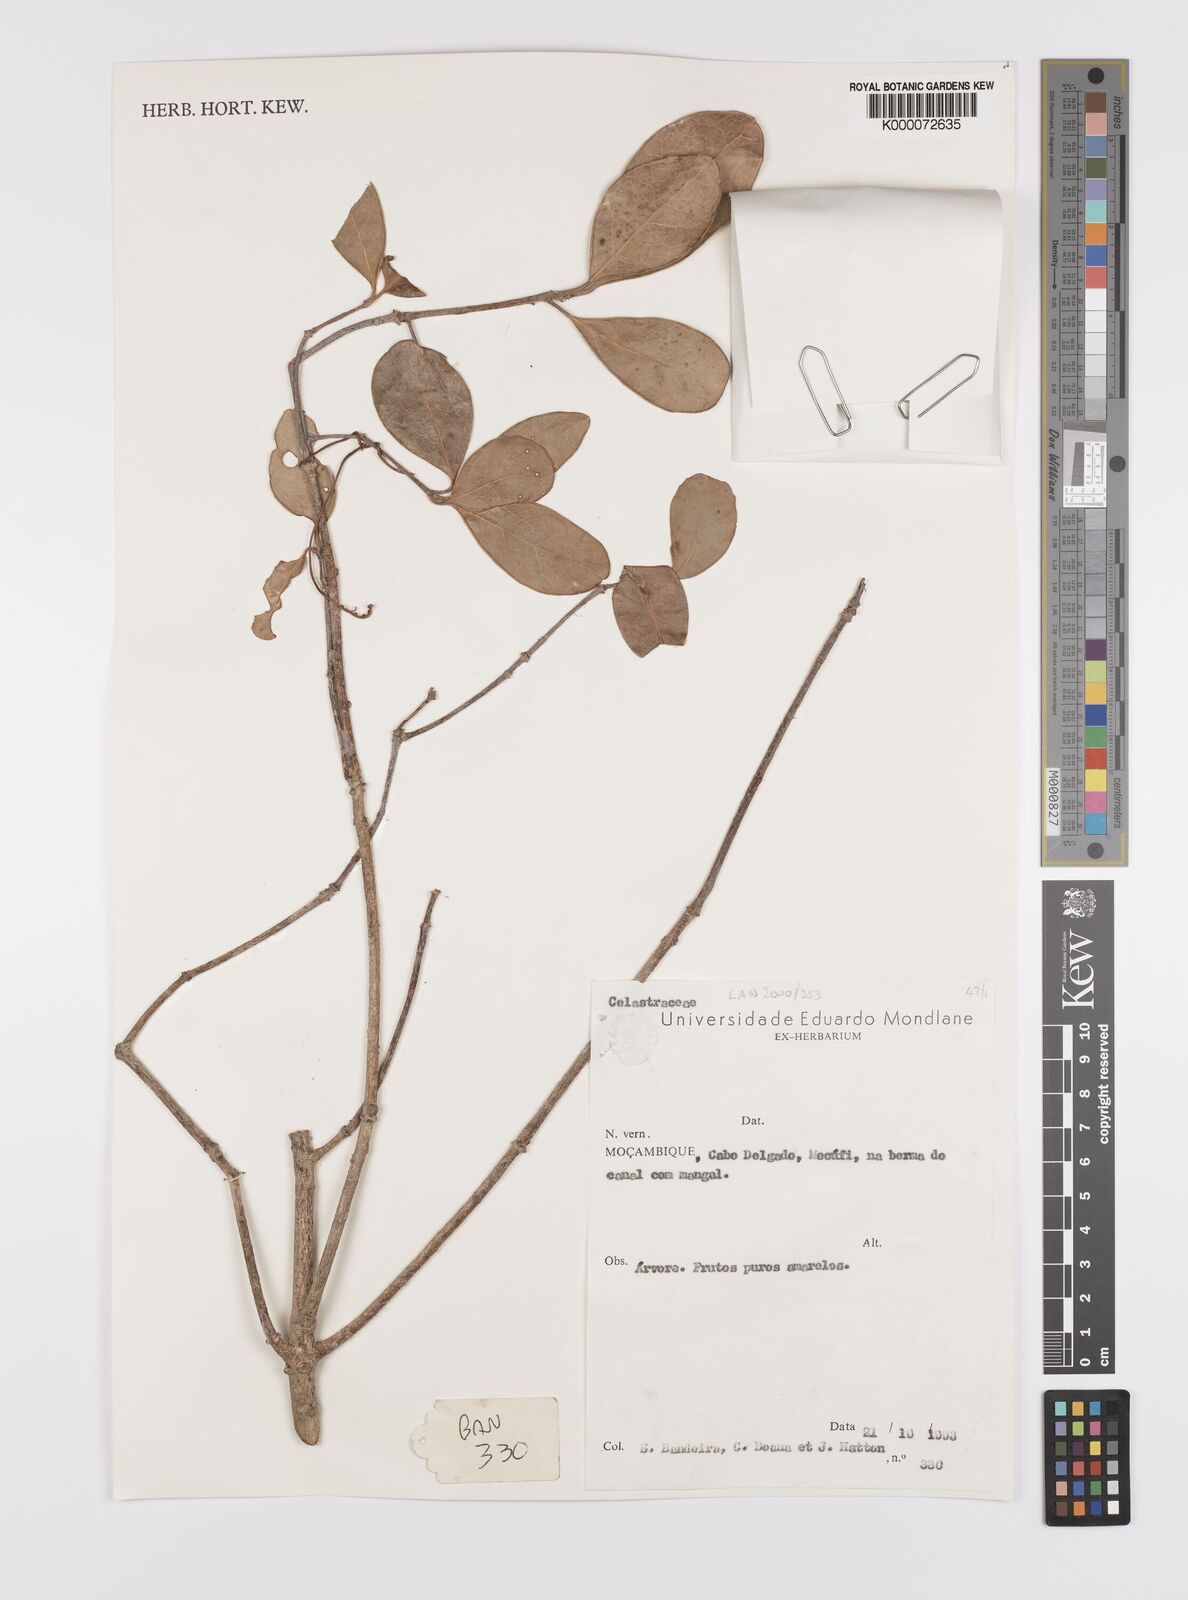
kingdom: Plantae
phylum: Tracheophyta
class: Magnoliopsida
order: Celastrales
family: Celastraceae
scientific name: Celastraceae
